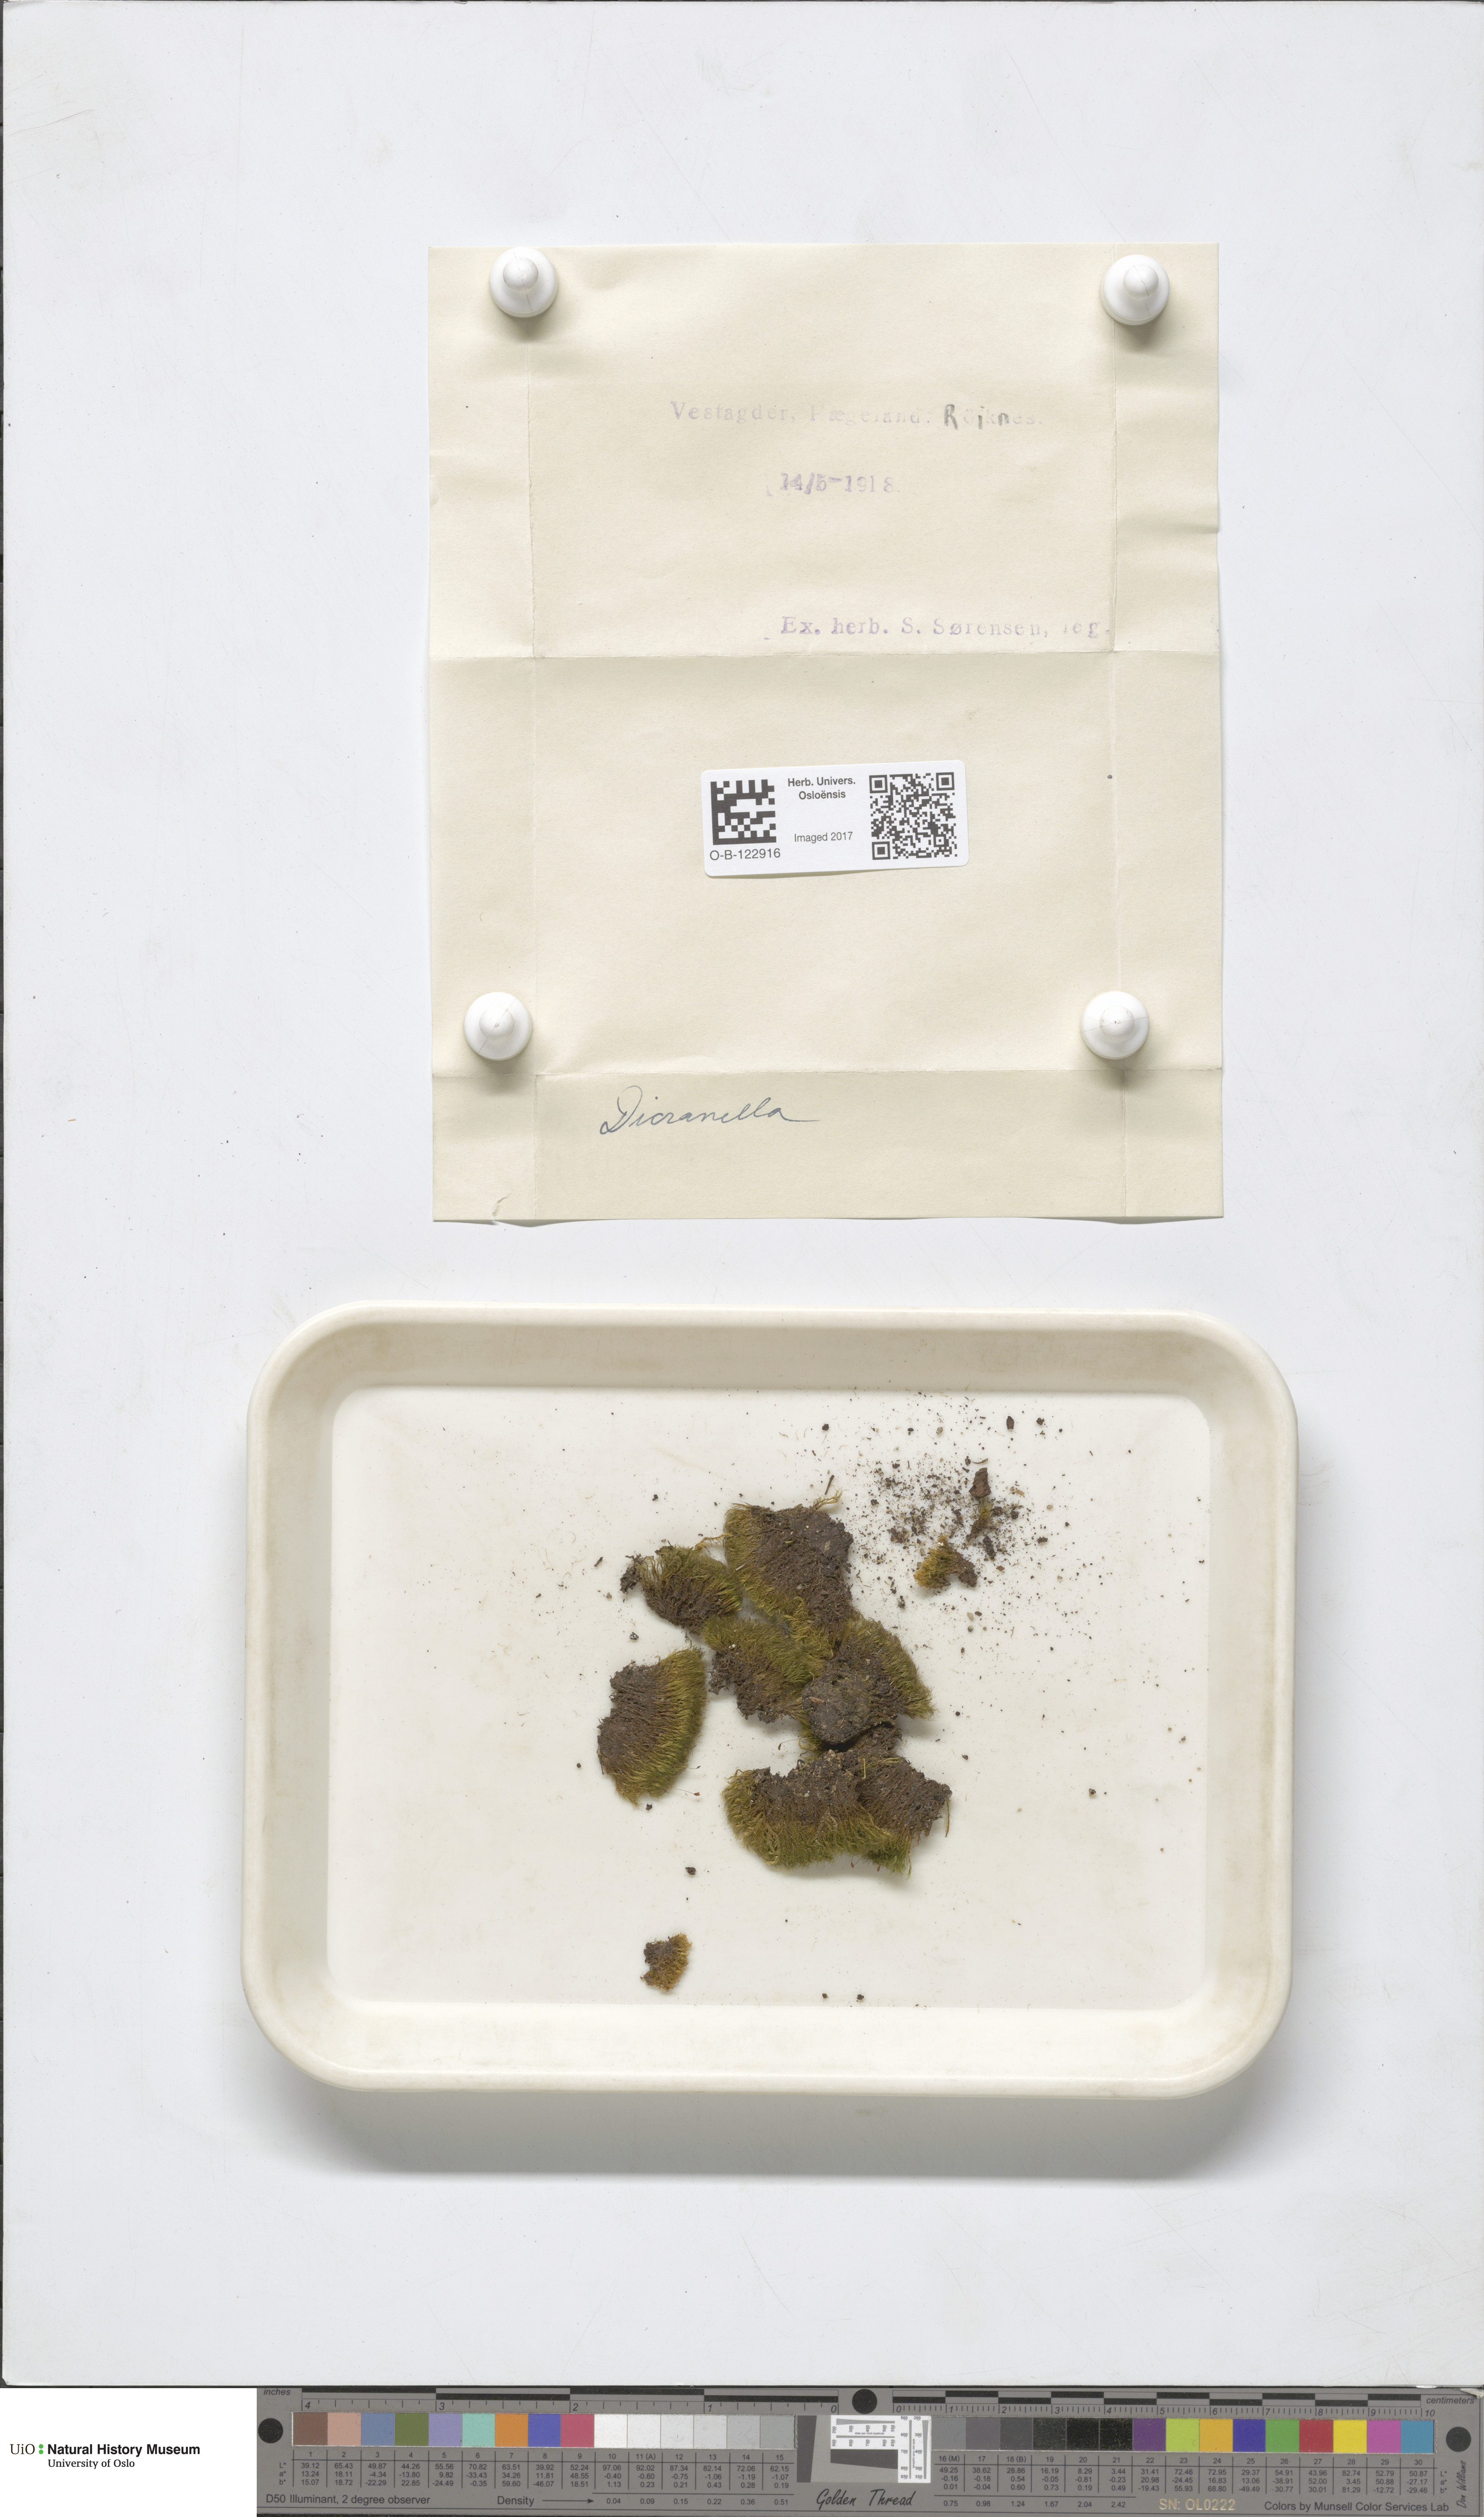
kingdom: Plantae
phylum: Bryophyta
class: Bryopsida
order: Dicranales
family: Dicranellaceae
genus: Dicranella
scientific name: Dicranella
